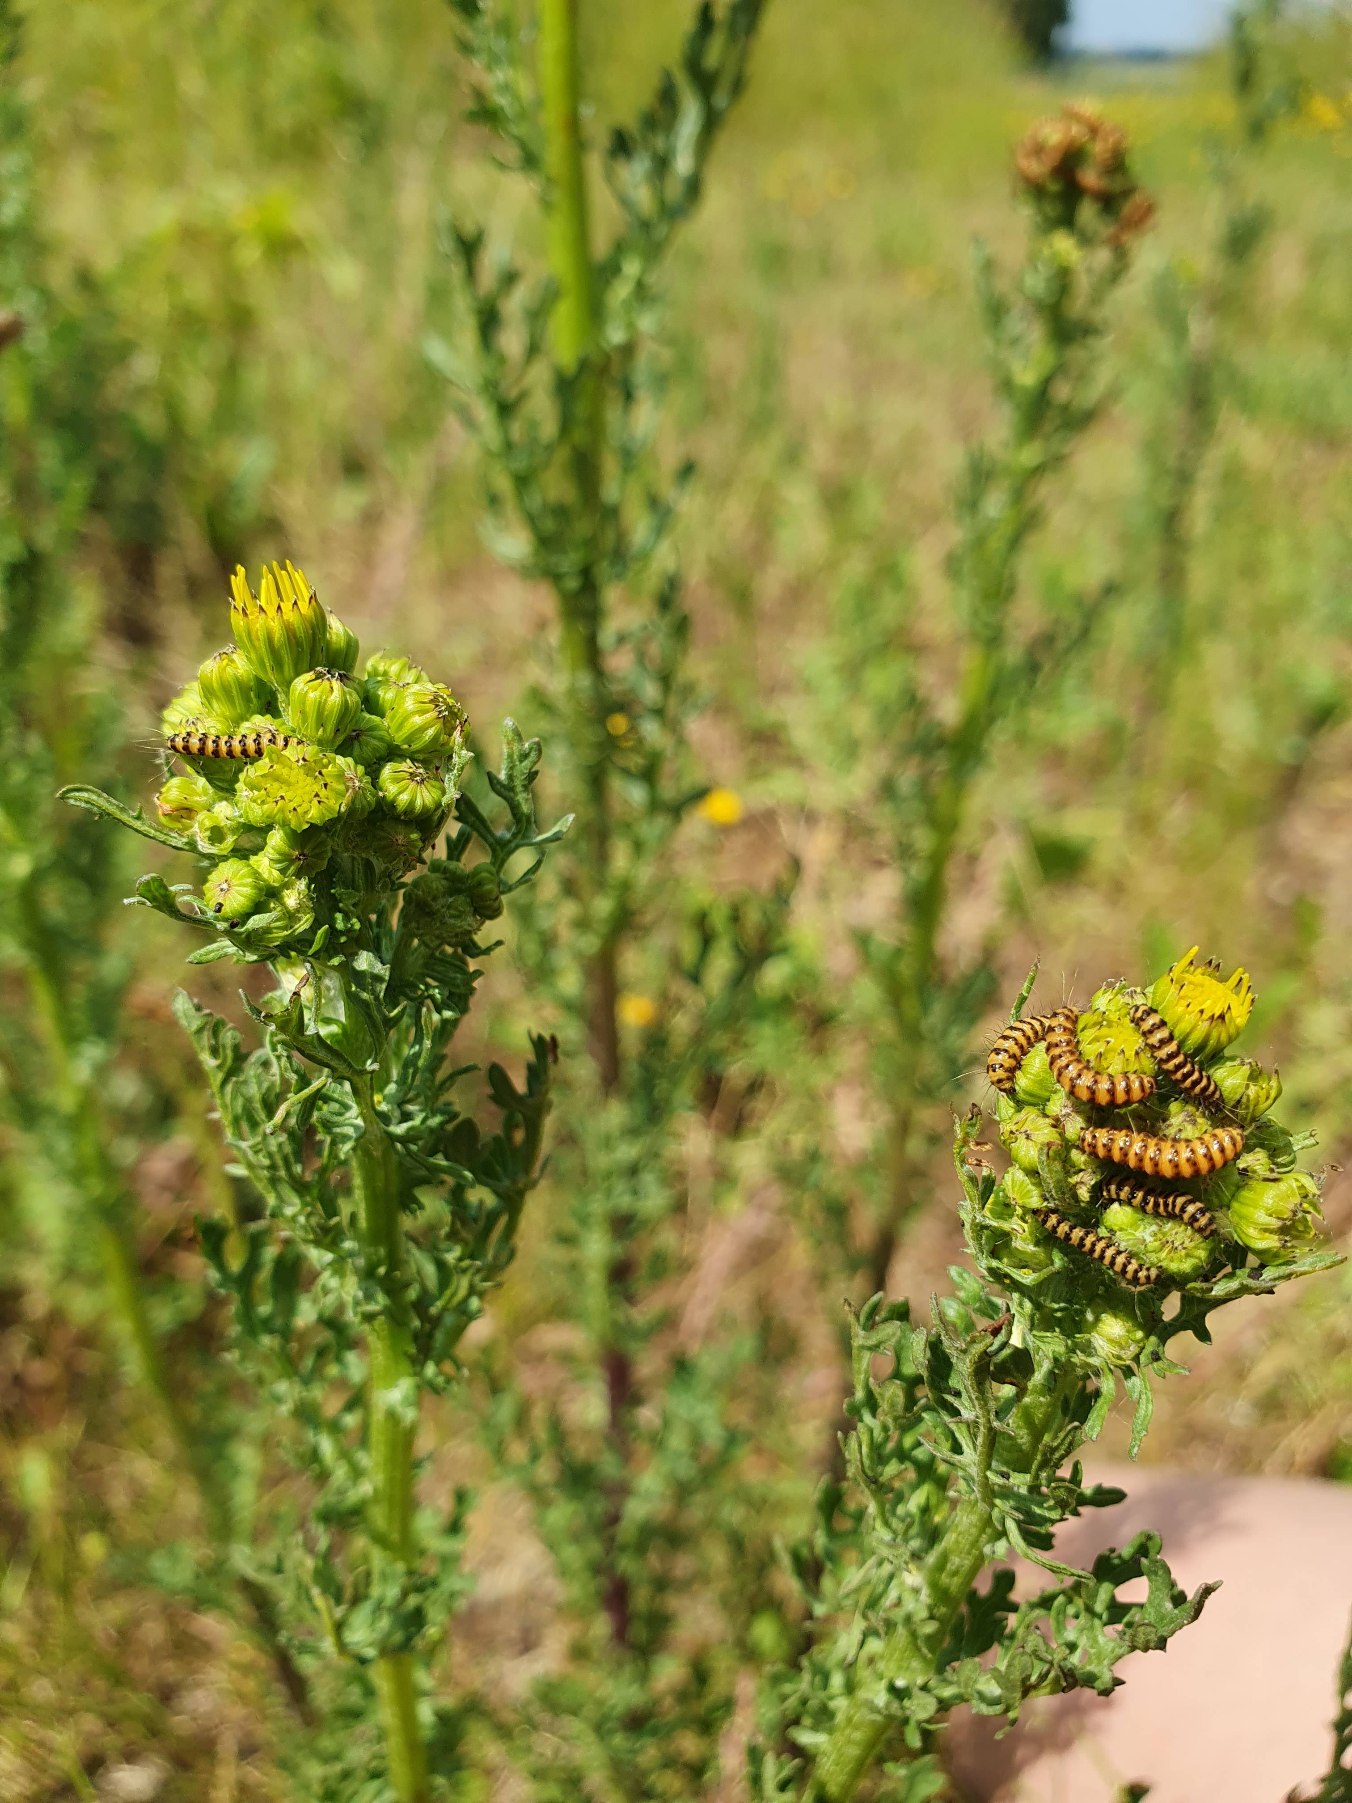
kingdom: Animalia
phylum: Arthropoda
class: Insecta
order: Lepidoptera
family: Erebidae
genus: Tyria
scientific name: Tyria jacobaeae
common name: Blodplet
